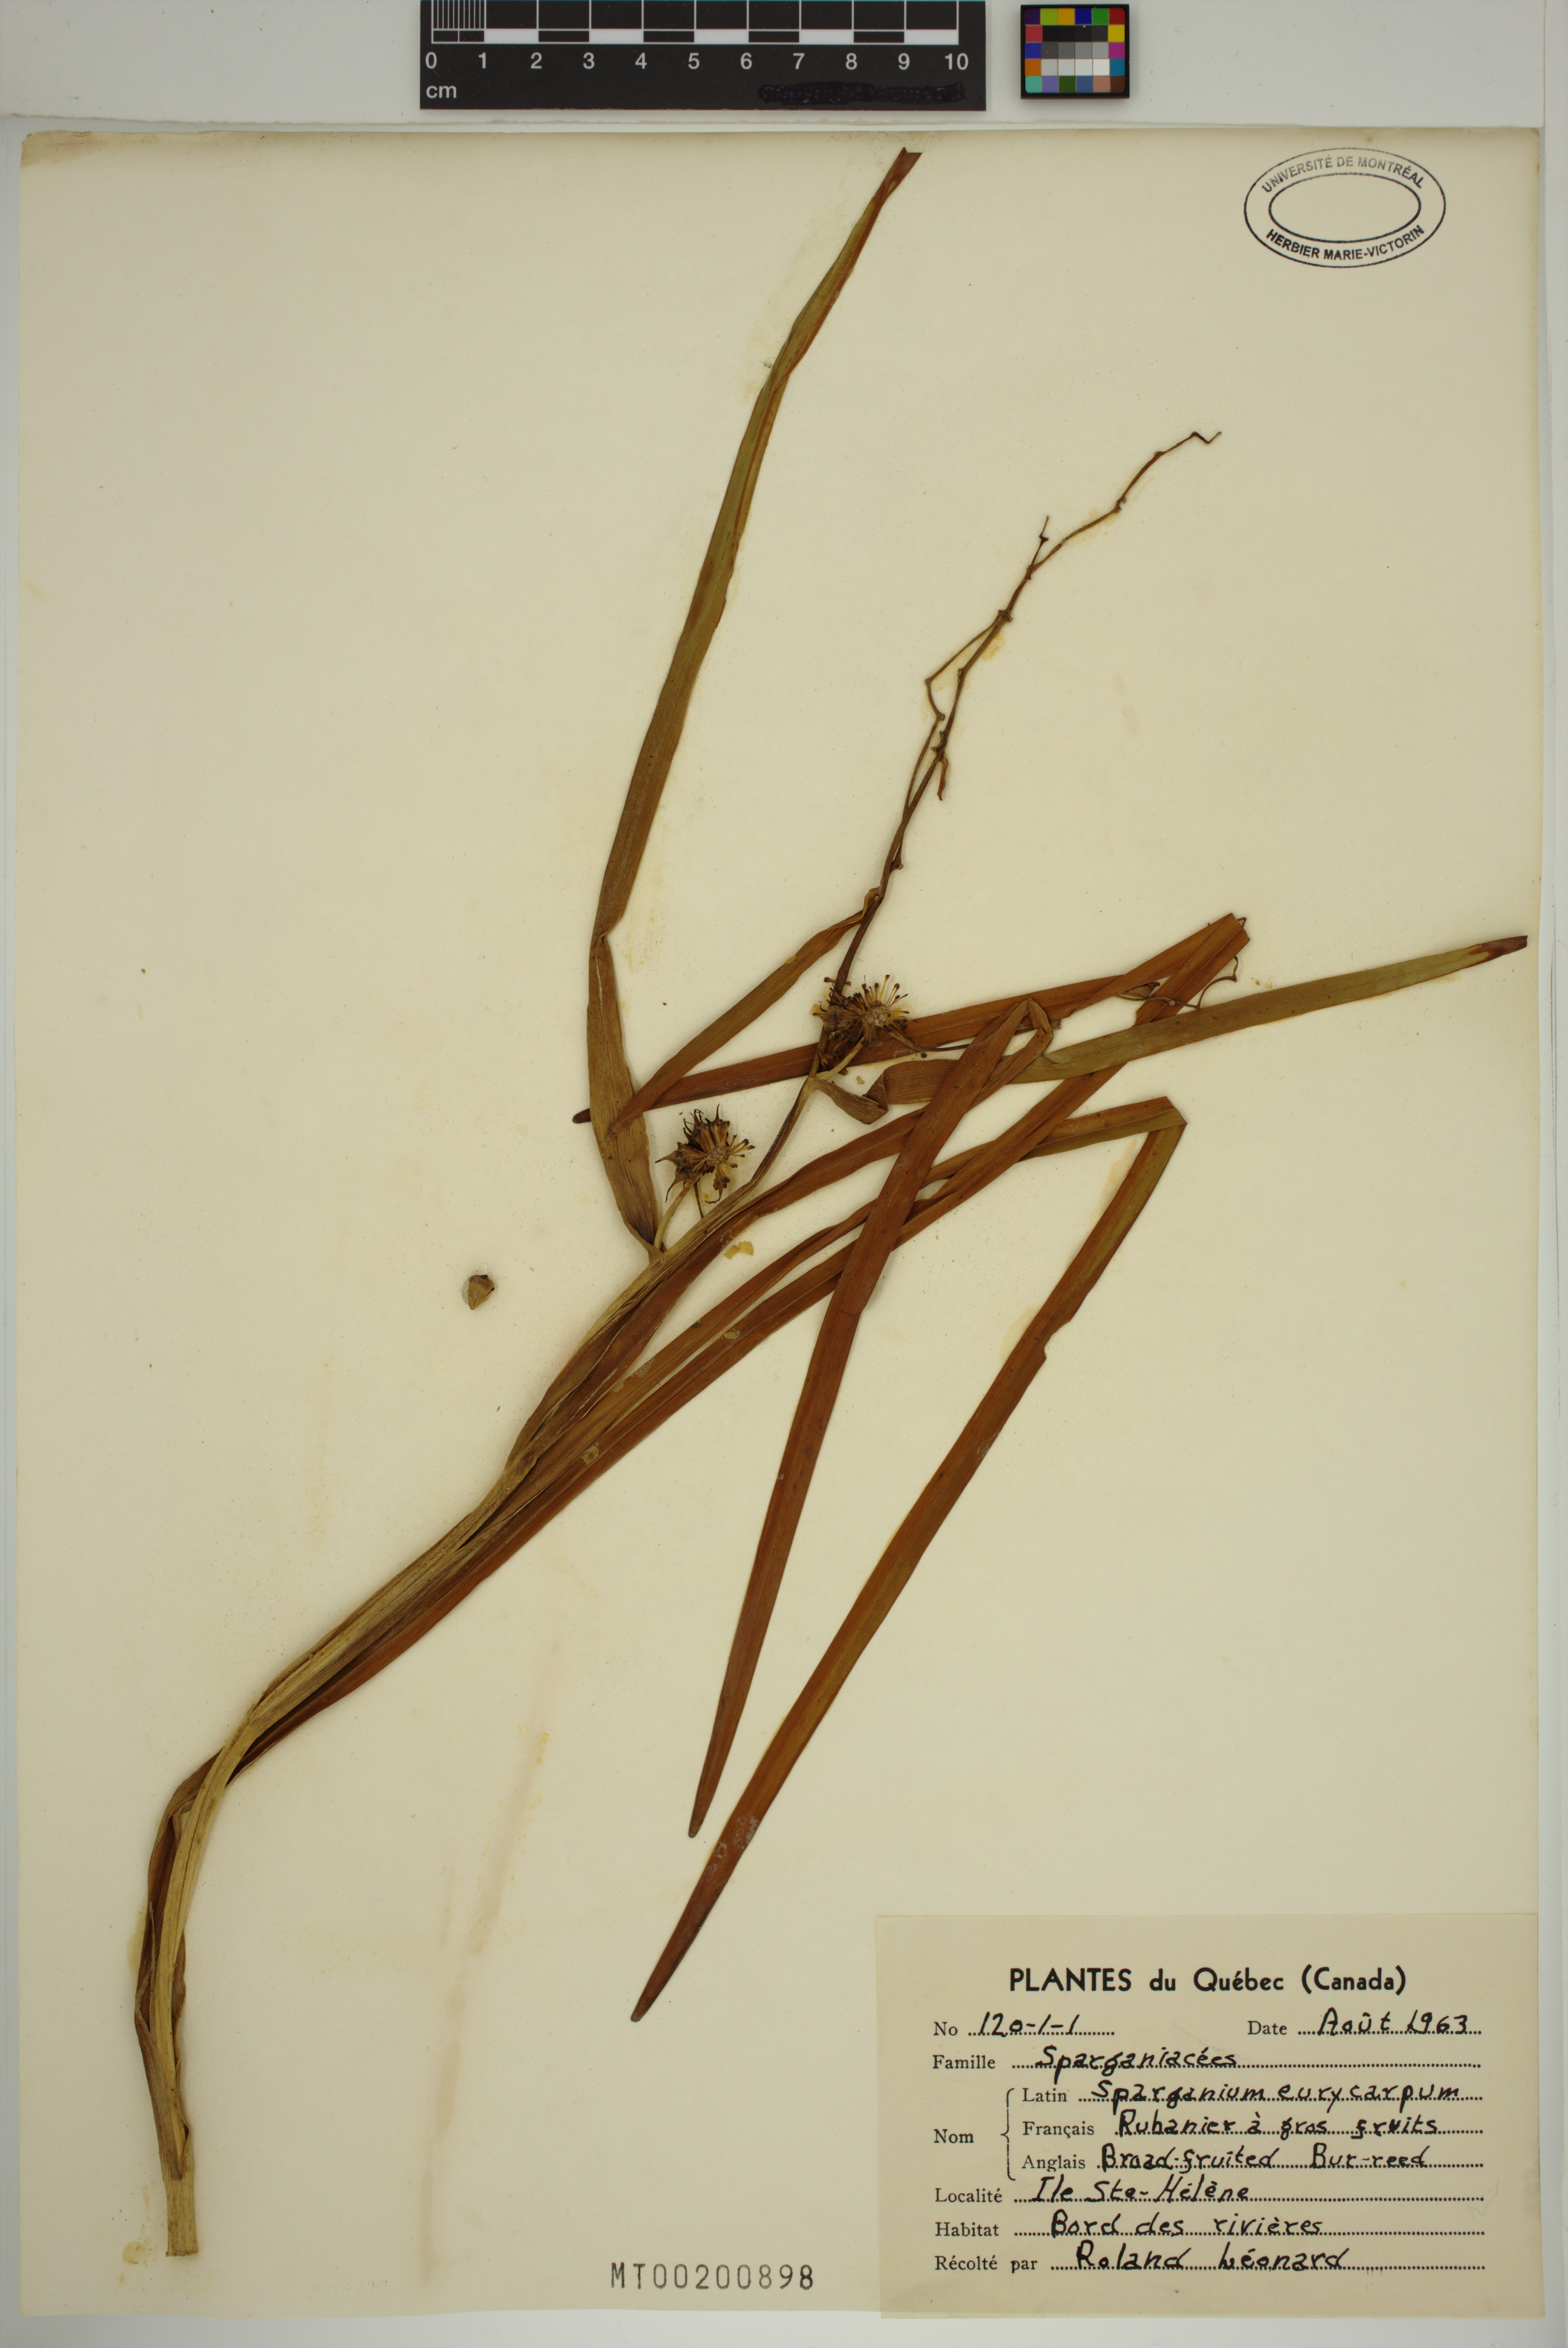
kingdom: Plantae
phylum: Tracheophyta
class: Liliopsida
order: Poales
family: Typhaceae
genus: Sparganium
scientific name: Sparganium eurycarpum
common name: Broad-fruited burreed
